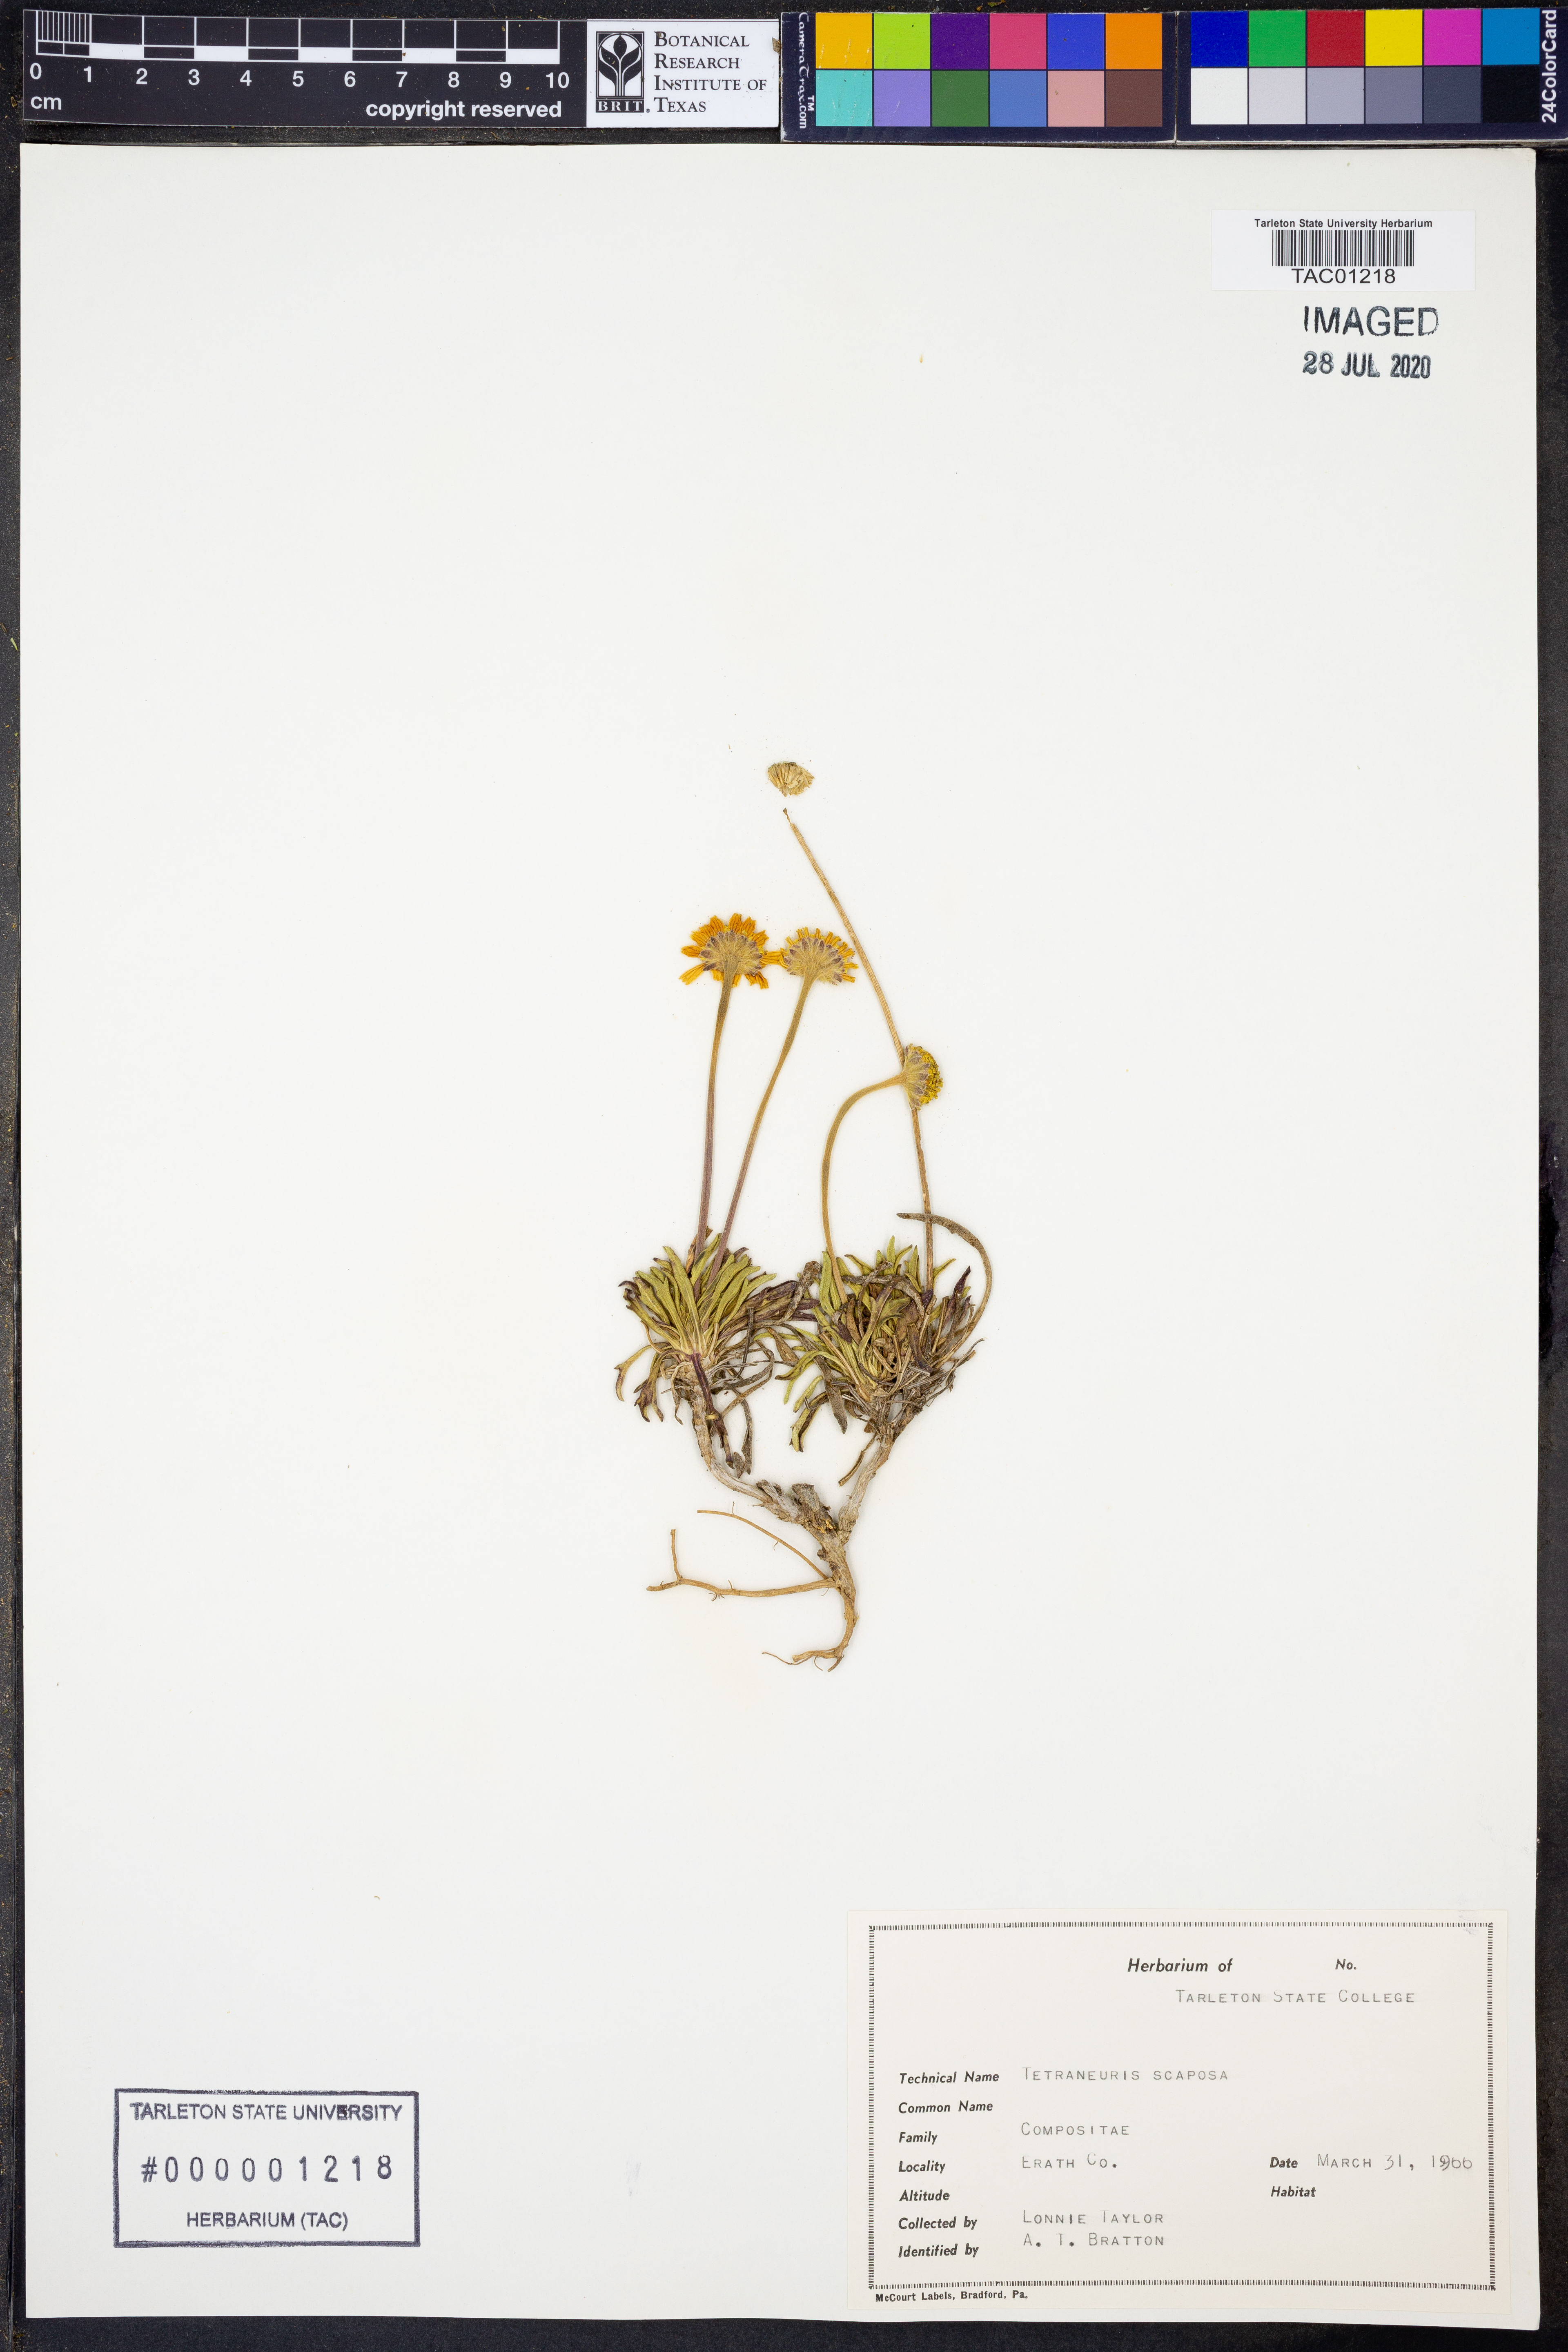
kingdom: Plantae
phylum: Tracheophyta
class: Magnoliopsida
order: Asterales
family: Asteraceae
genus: Tetraneuris
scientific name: Tetraneuris scaposa
